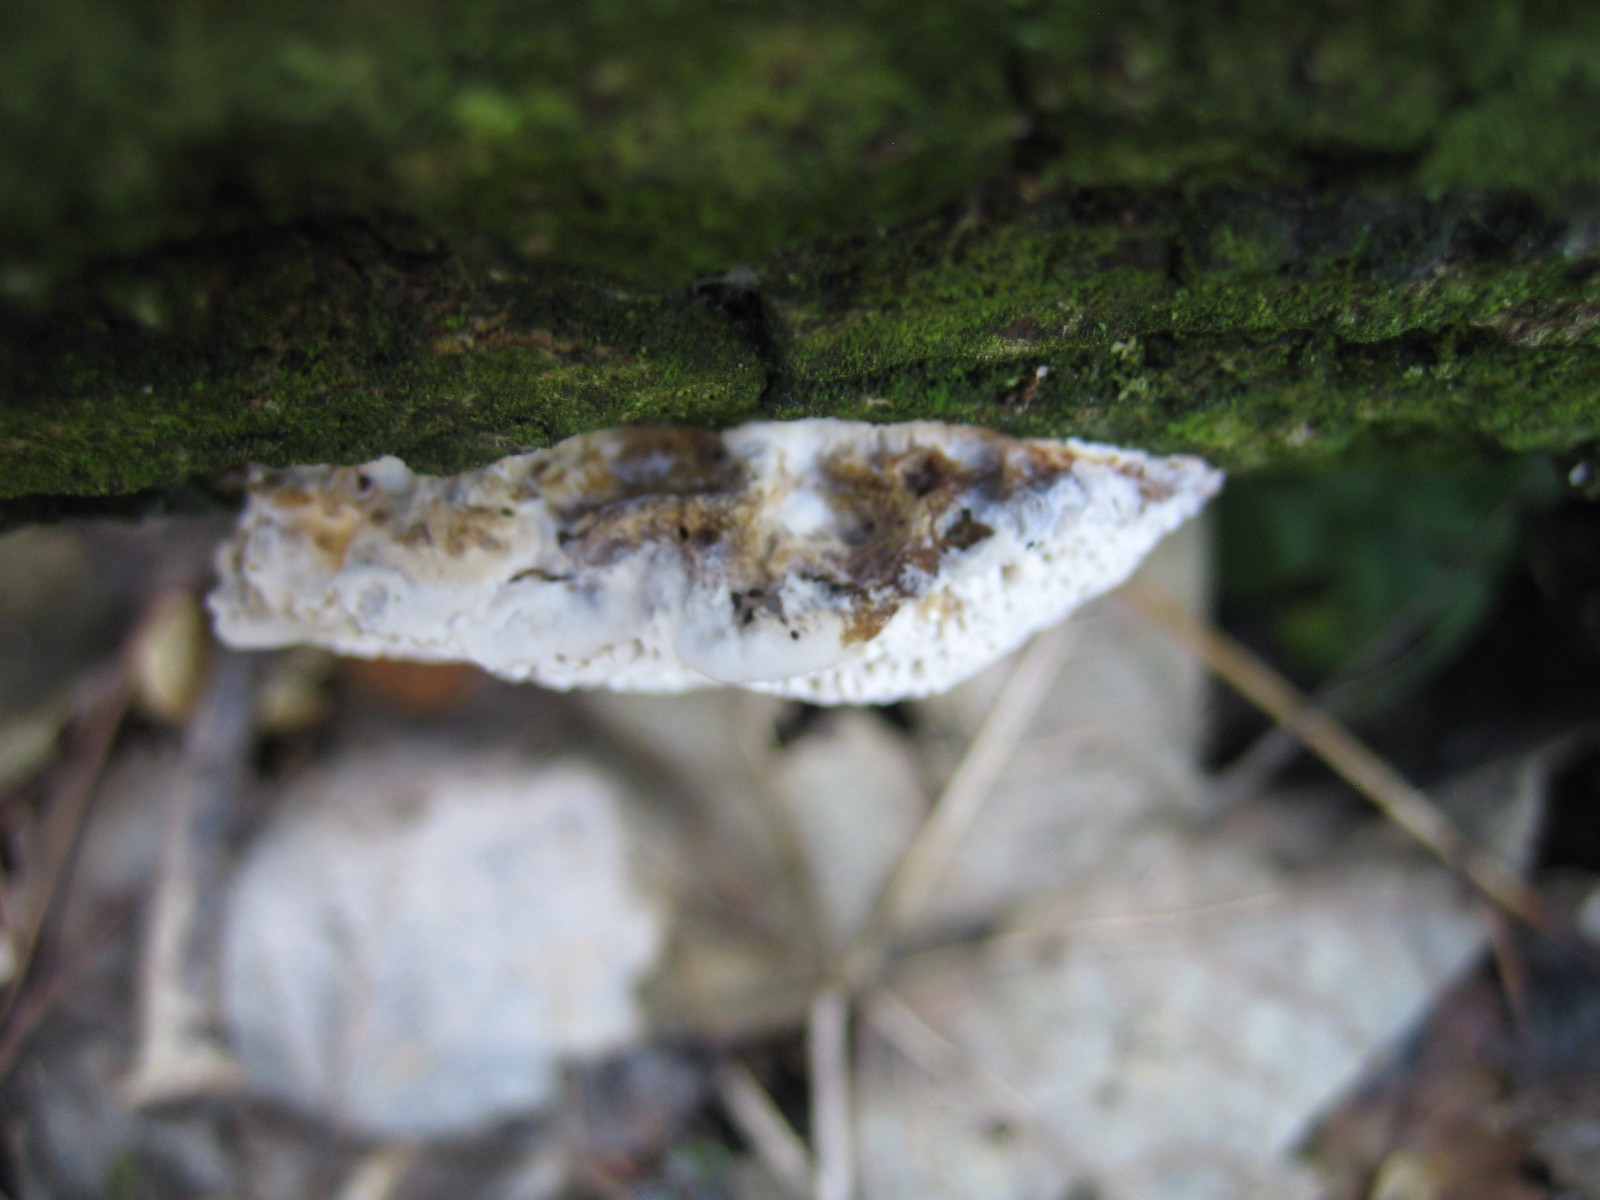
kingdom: Fungi
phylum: Basidiomycota
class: Agaricomycetes
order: Polyporales
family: Polyporaceae
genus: Daedaleopsis
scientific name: Daedaleopsis confragosa
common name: rødmende læderporesvamp
